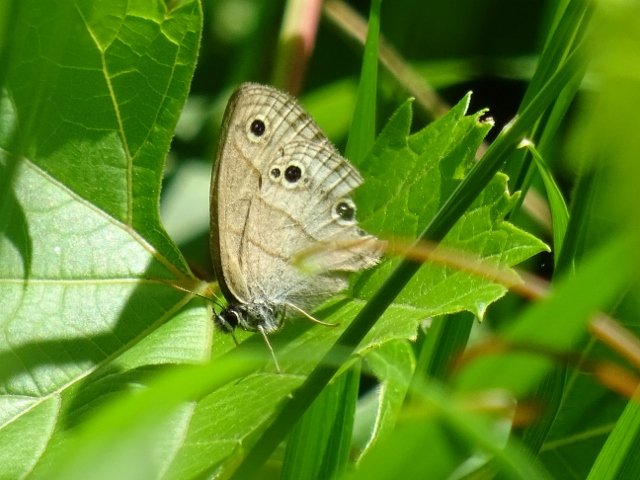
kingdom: Animalia
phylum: Arthropoda
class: Insecta
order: Lepidoptera
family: Nymphalidae
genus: Euptychia
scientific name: Euptychia cymela
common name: Little Wood Satyr
